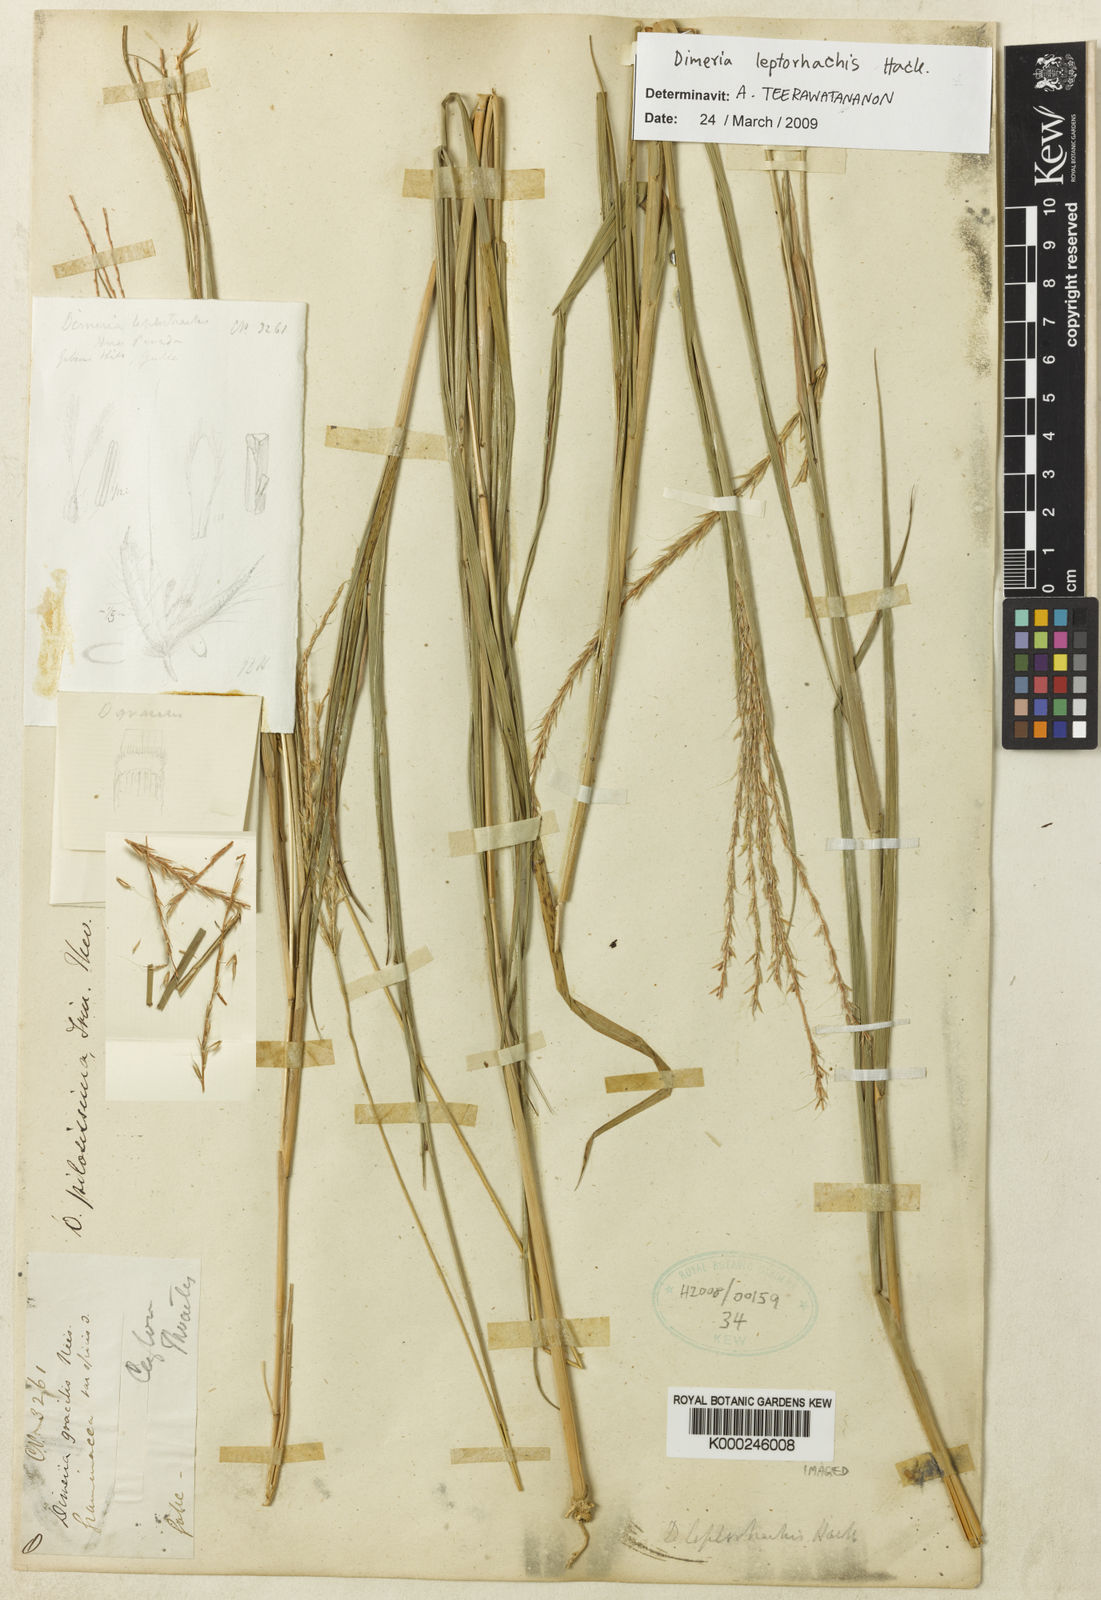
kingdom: Plantae
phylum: Tracheophyta
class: Liliopsida
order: Poales
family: Poaceae
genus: Dimeria
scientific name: Dimeria gracilis
